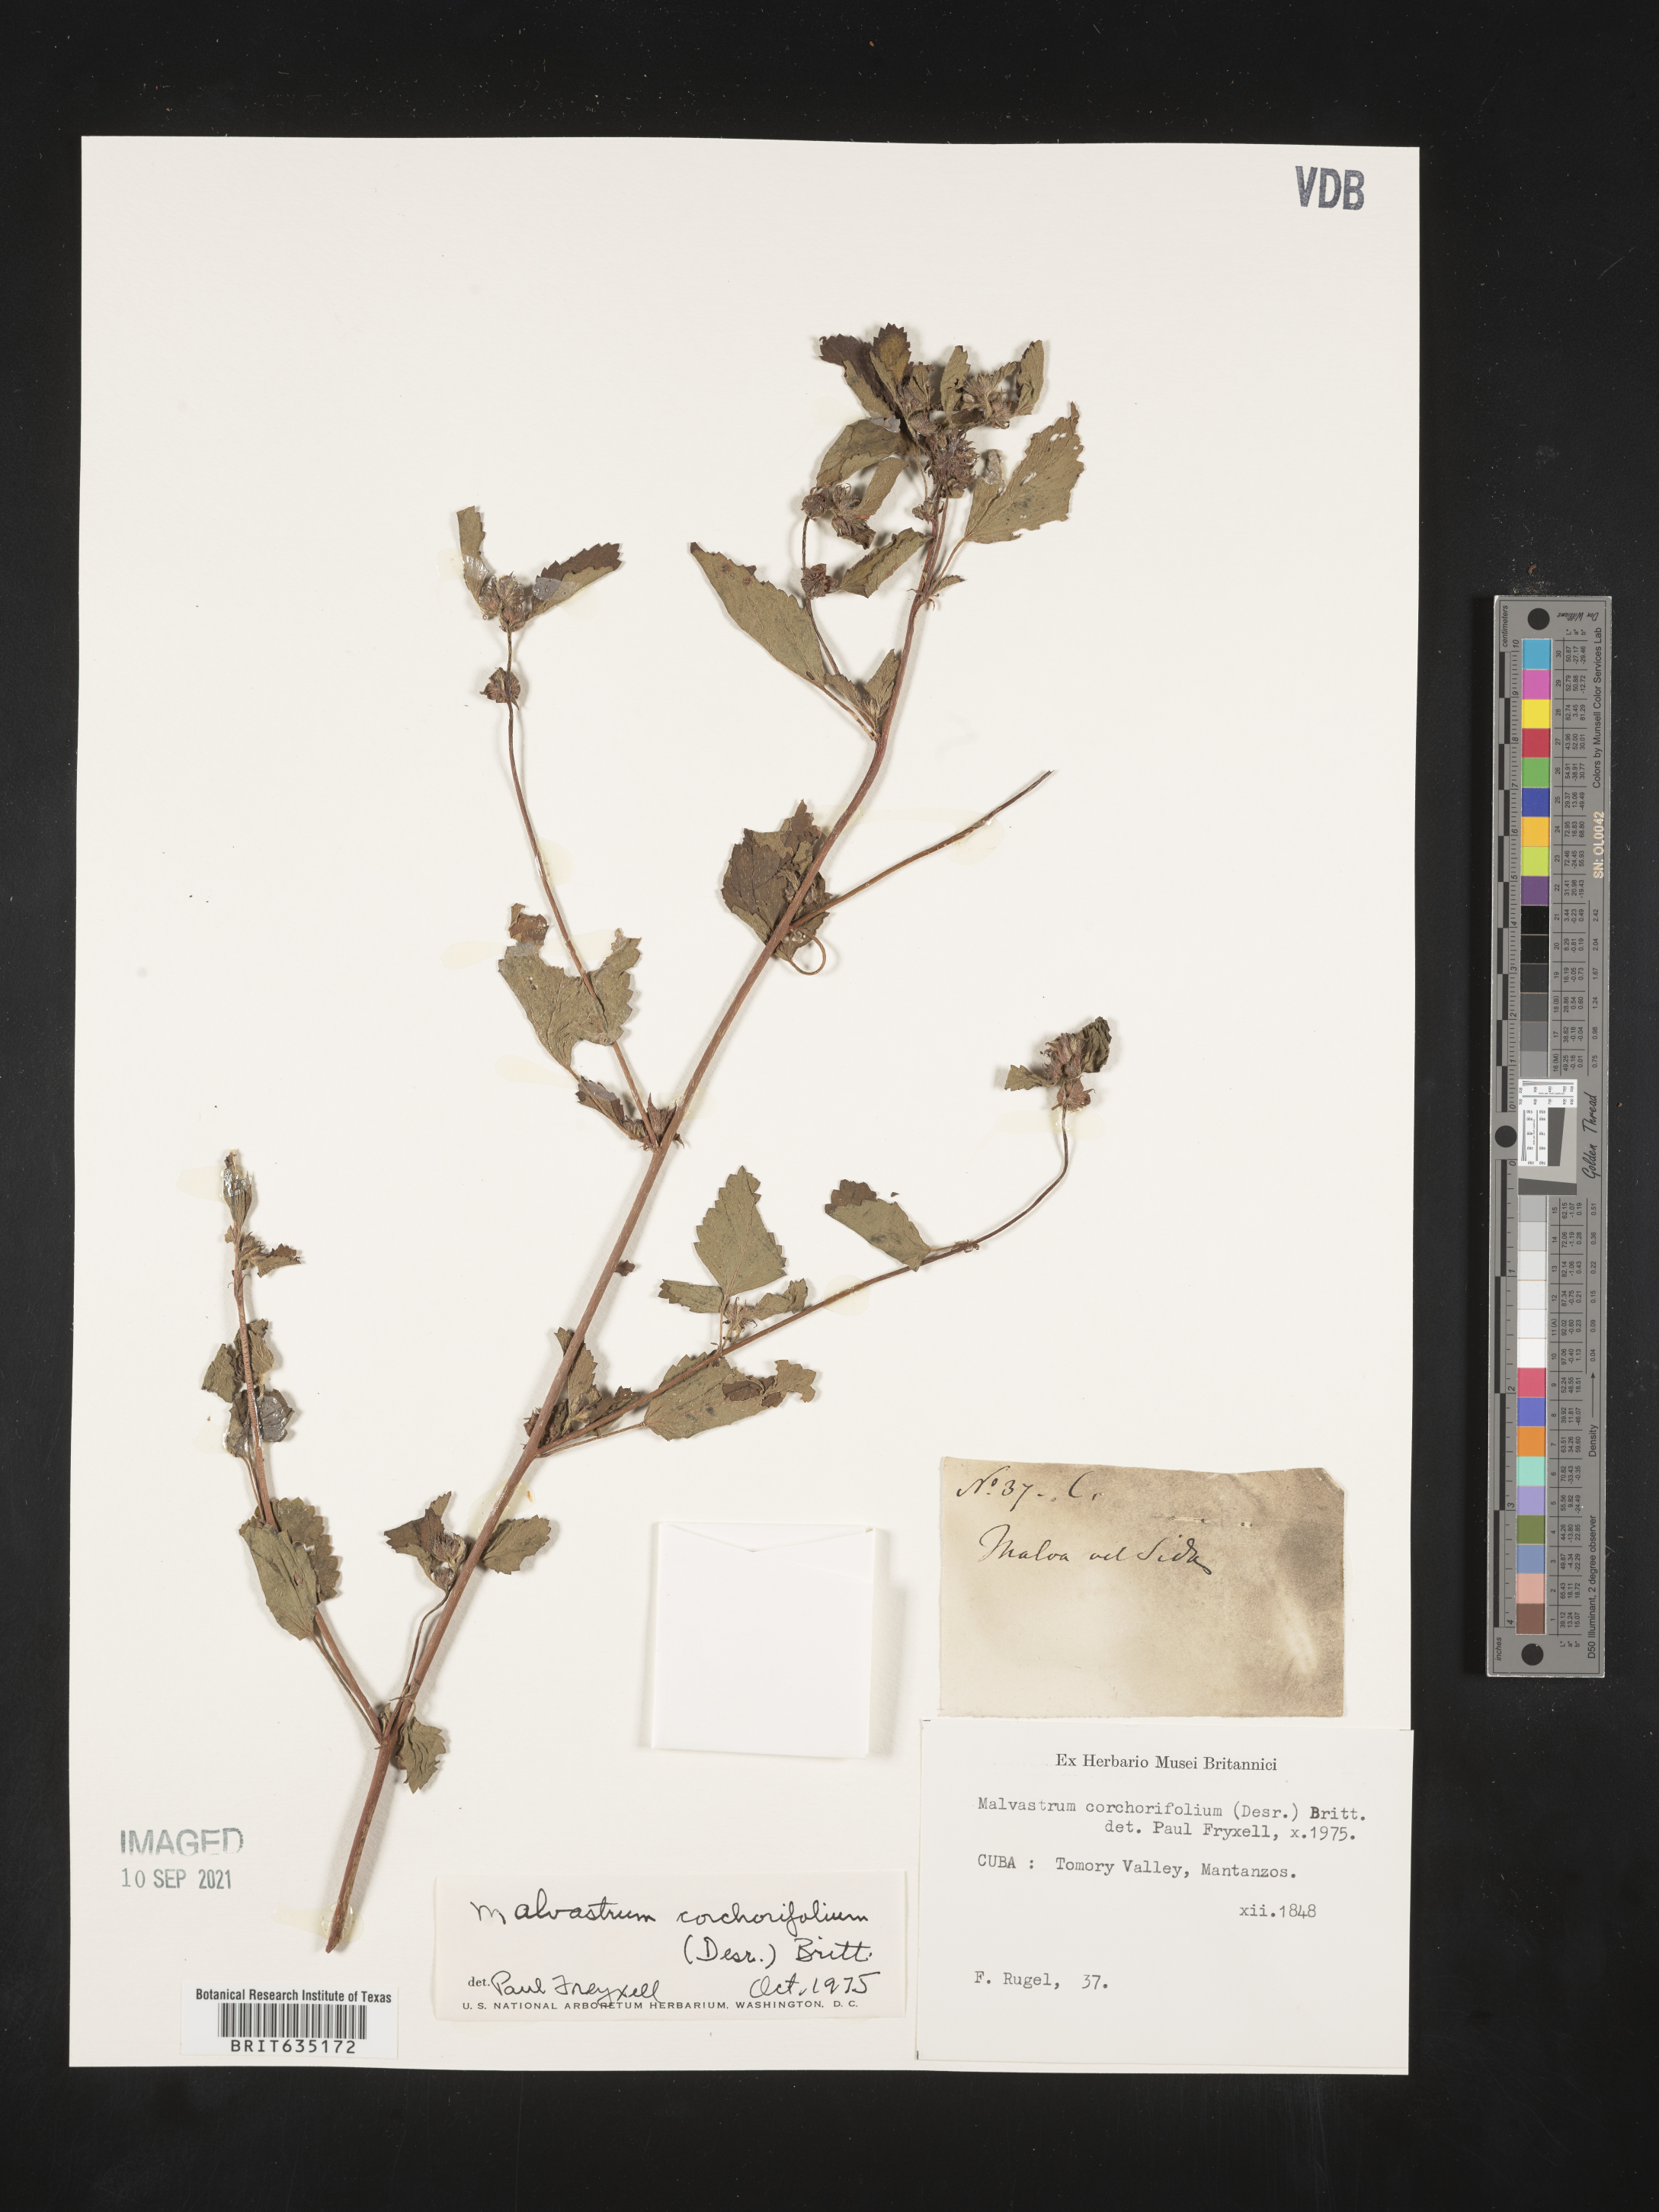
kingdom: Plantae
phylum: Tracheophyta
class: Magnoliopsida
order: Malvales
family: Malvaceae
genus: Malvastrum
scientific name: Malvastrum
